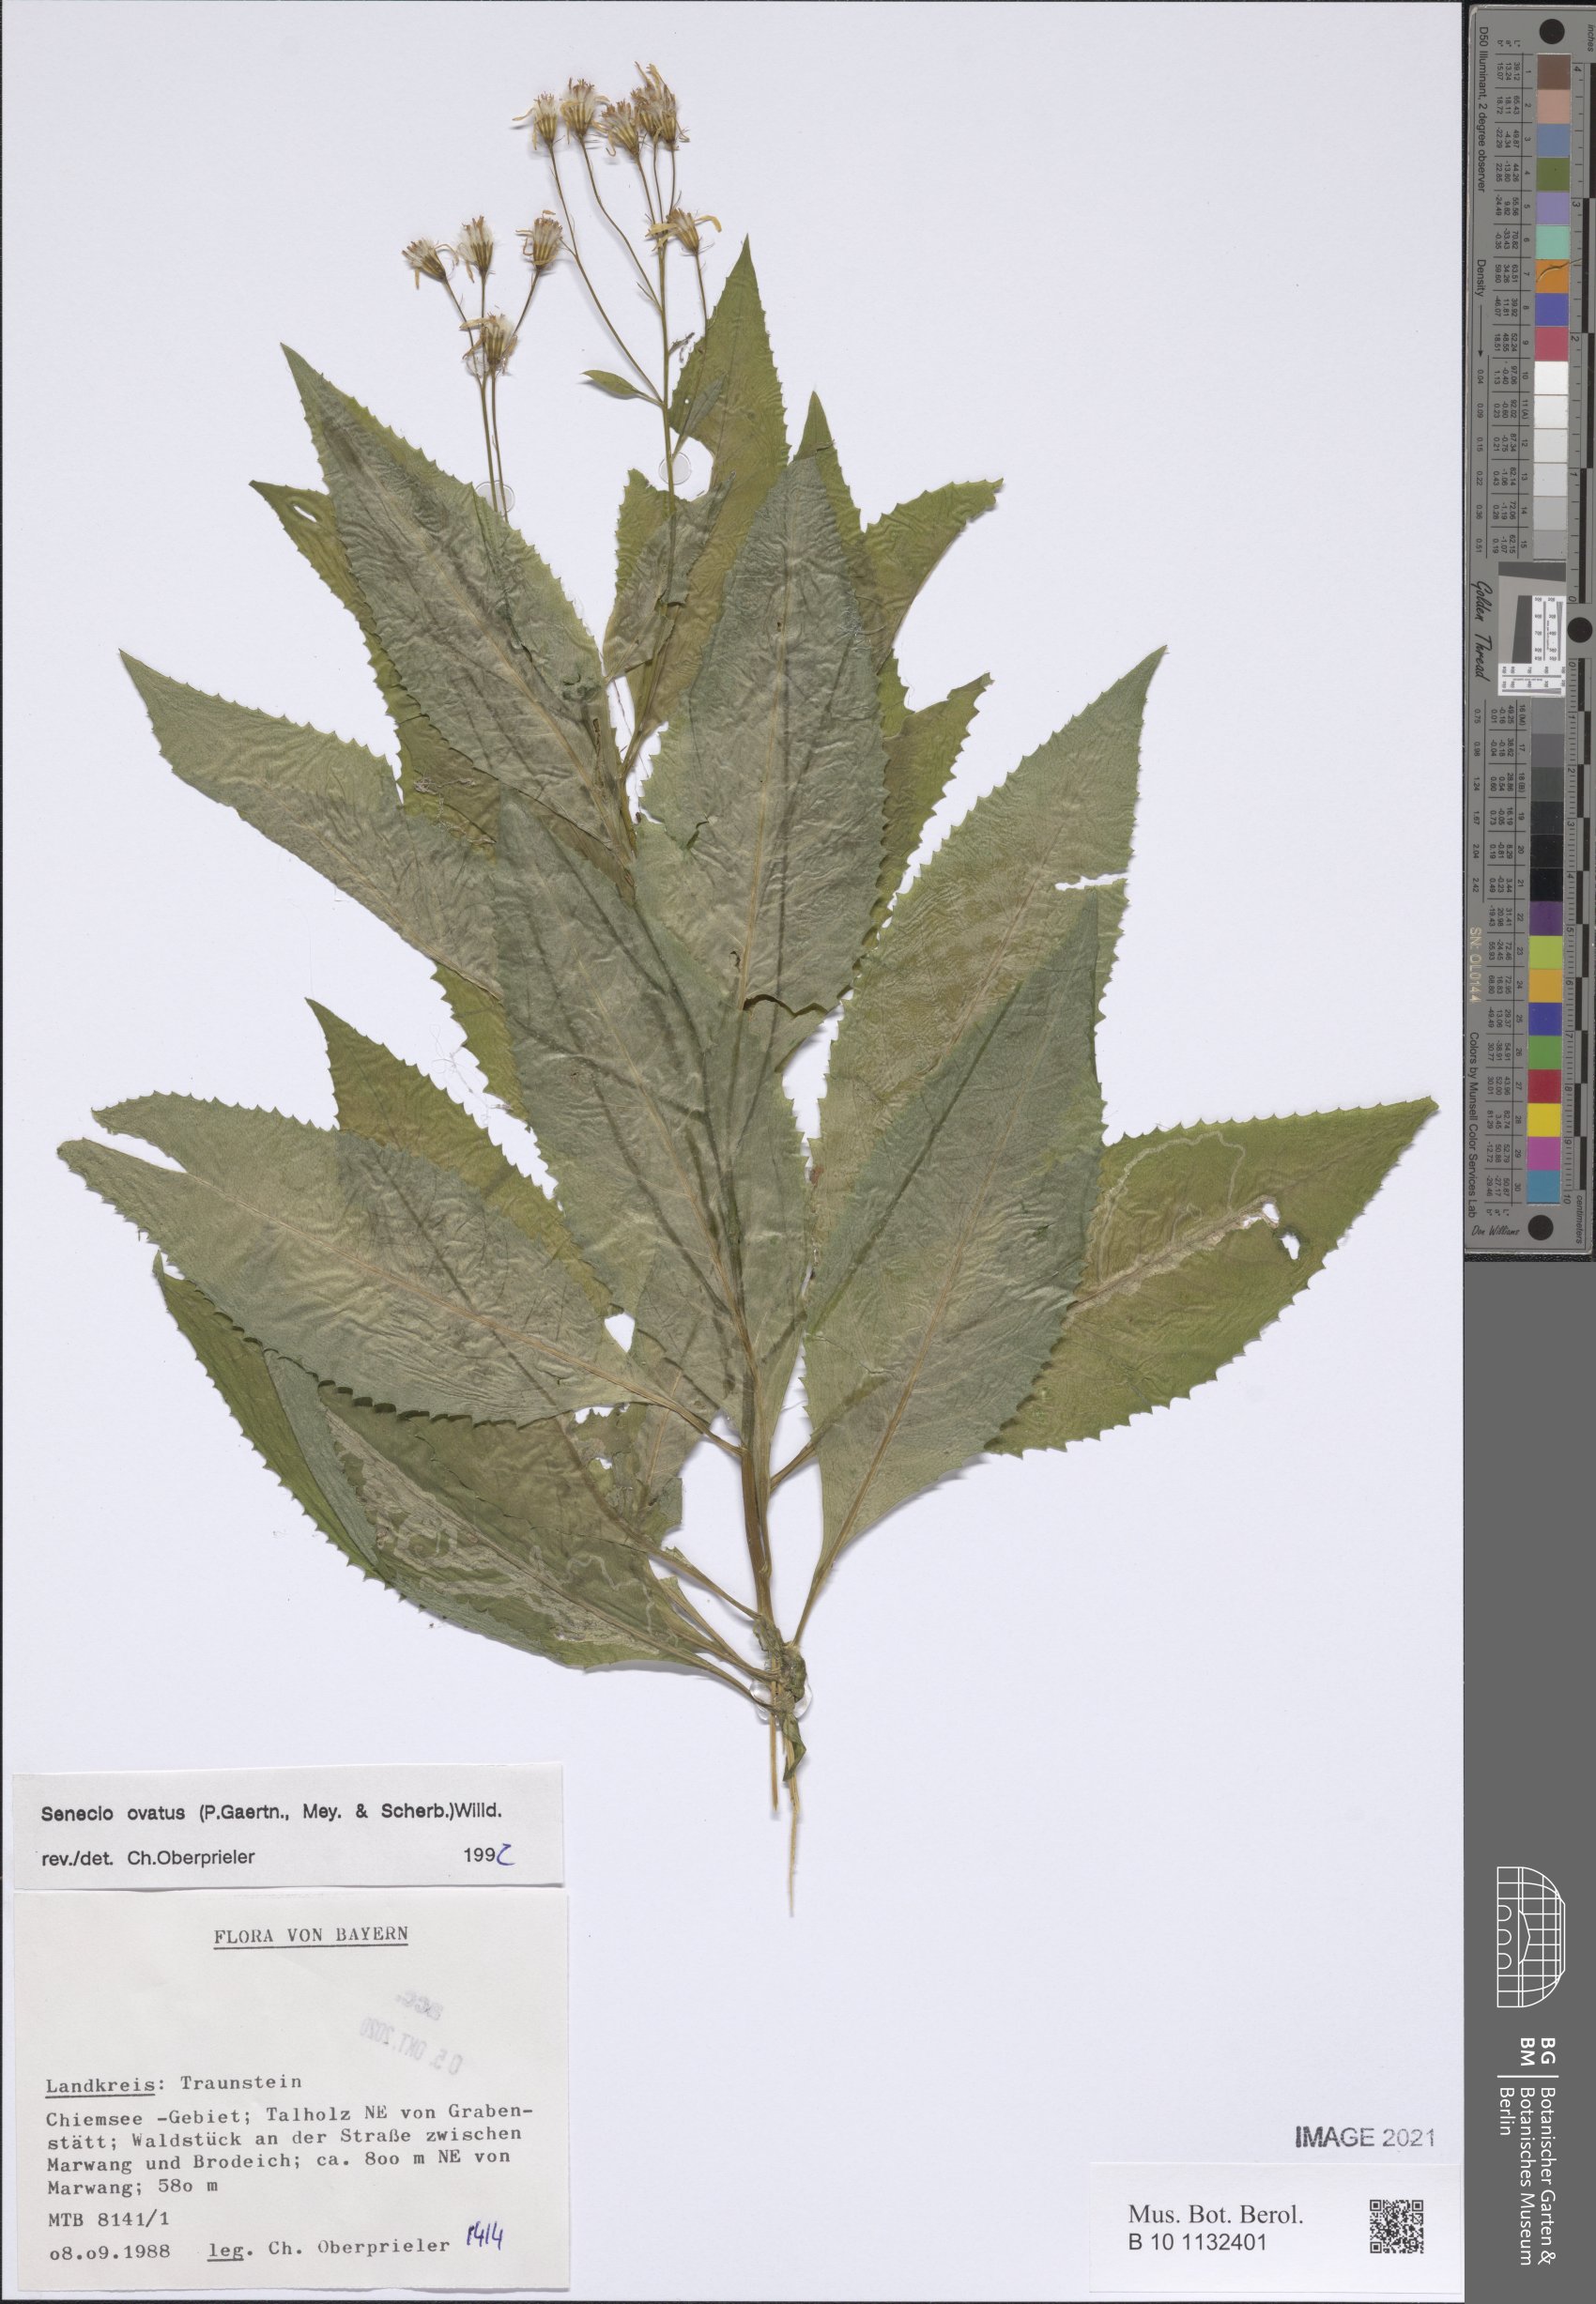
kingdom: Plantae
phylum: Tracheophyta
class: Magnoliopsida
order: Asterales
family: Asteraceae
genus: Senecio
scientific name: Senecio ovatus
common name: Wood ragwort
